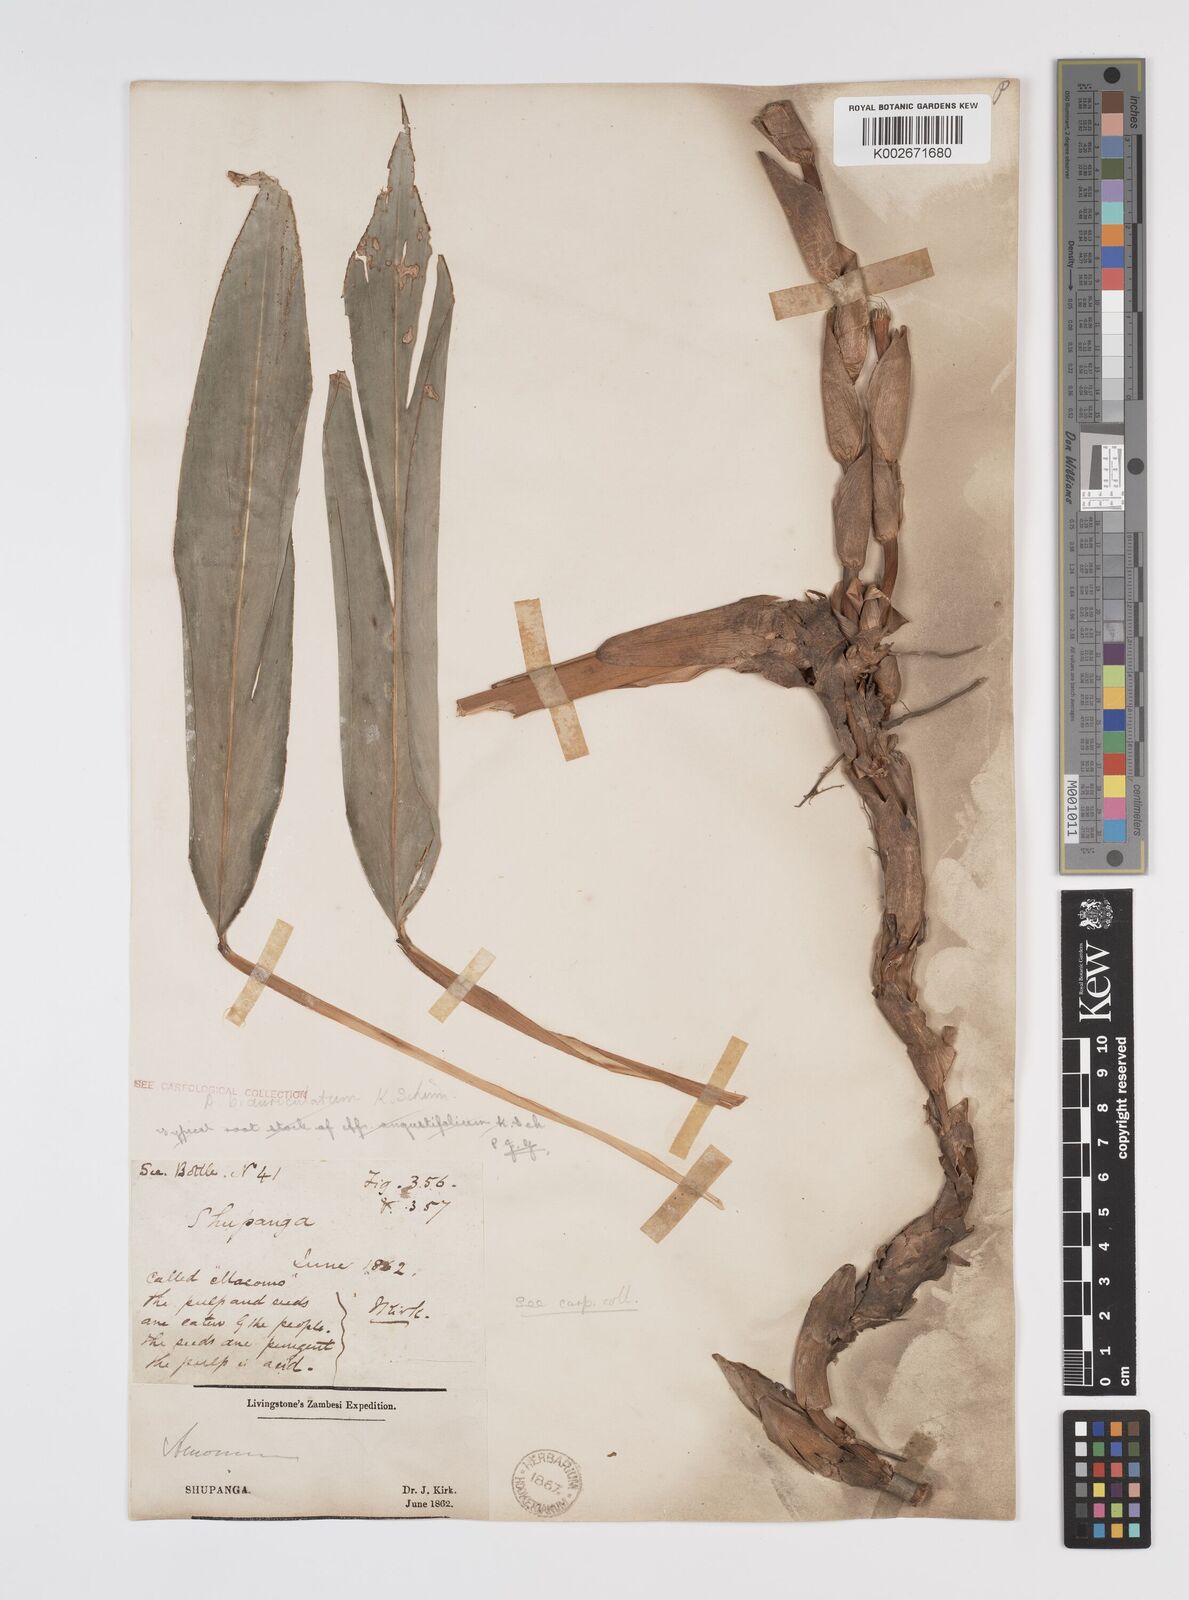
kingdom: Plantae
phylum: Tracheophyta
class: Liliopsida
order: Zingiberales
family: Zingiberaceae
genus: Aframomum
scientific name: Aframomum alboviolaceum
